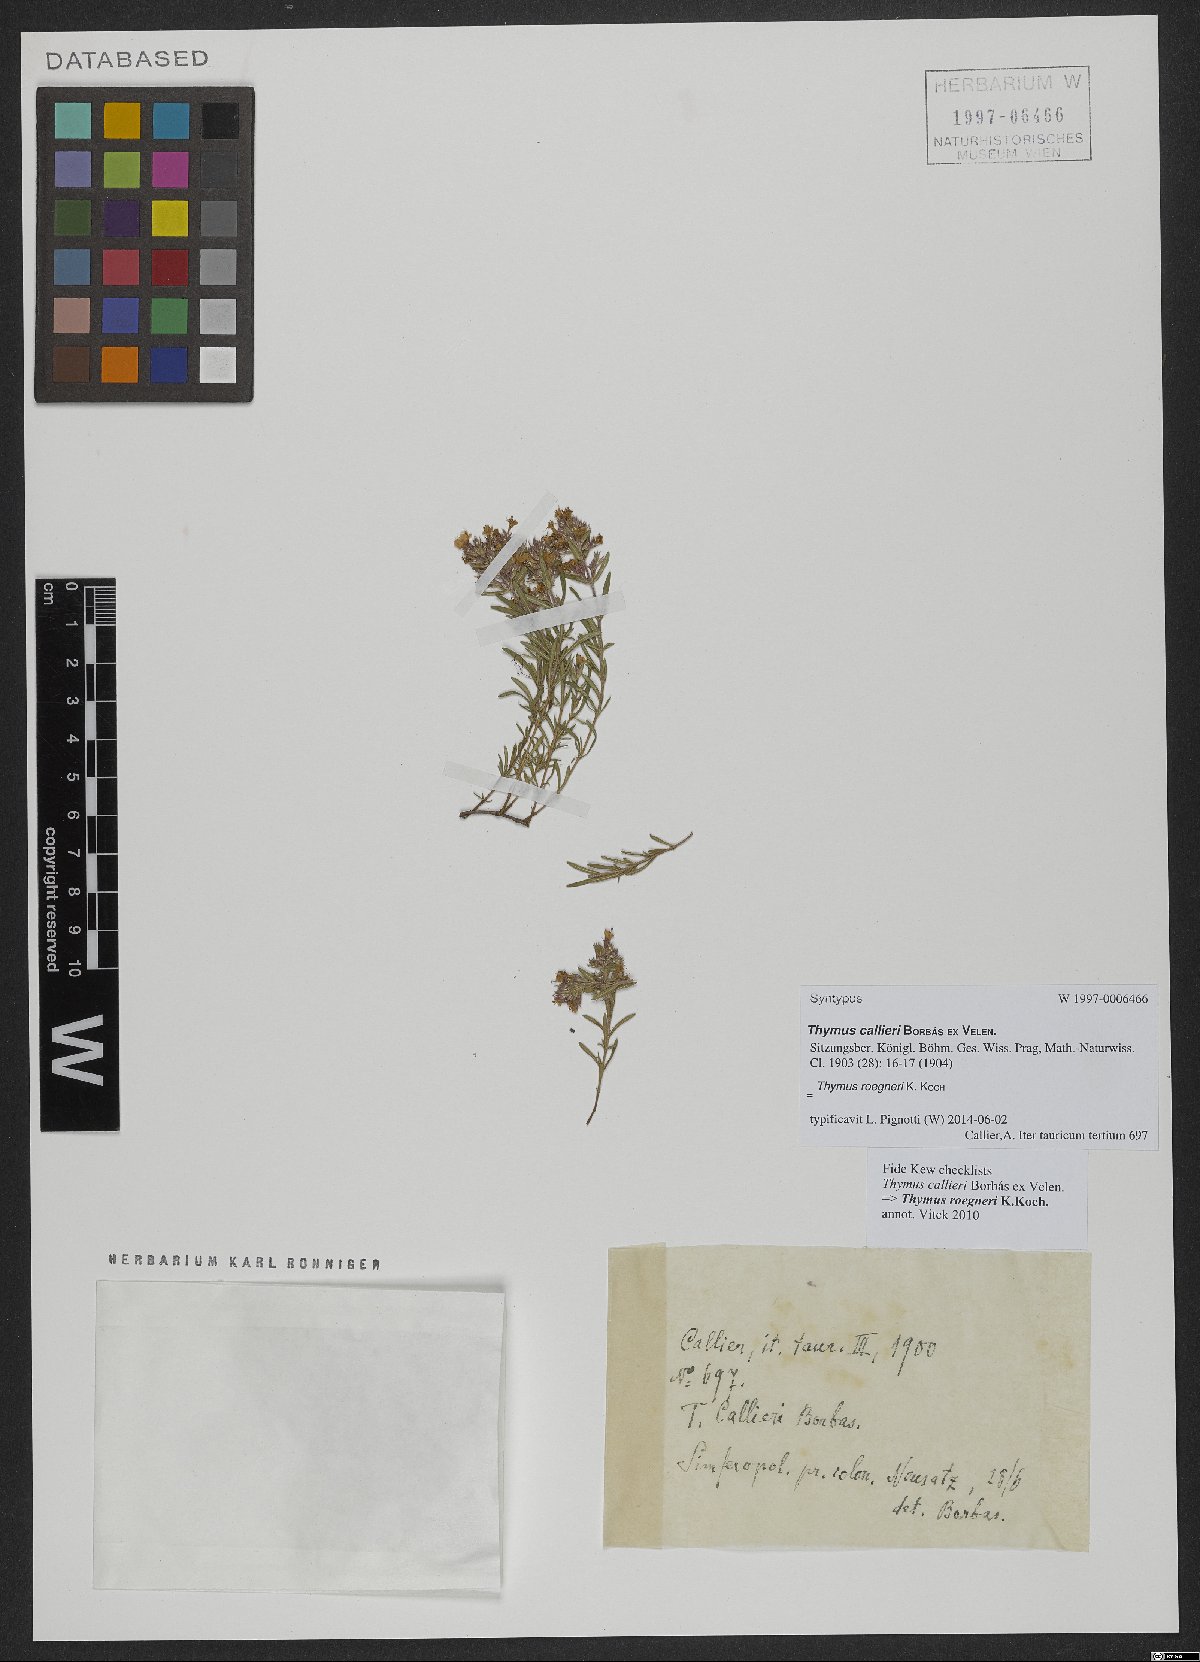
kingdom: Plantae
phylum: Tracheophyta
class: Magnoliopsida
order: Lamiales
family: Lamiaceae
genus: Thymus
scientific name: Thymus roegneri
